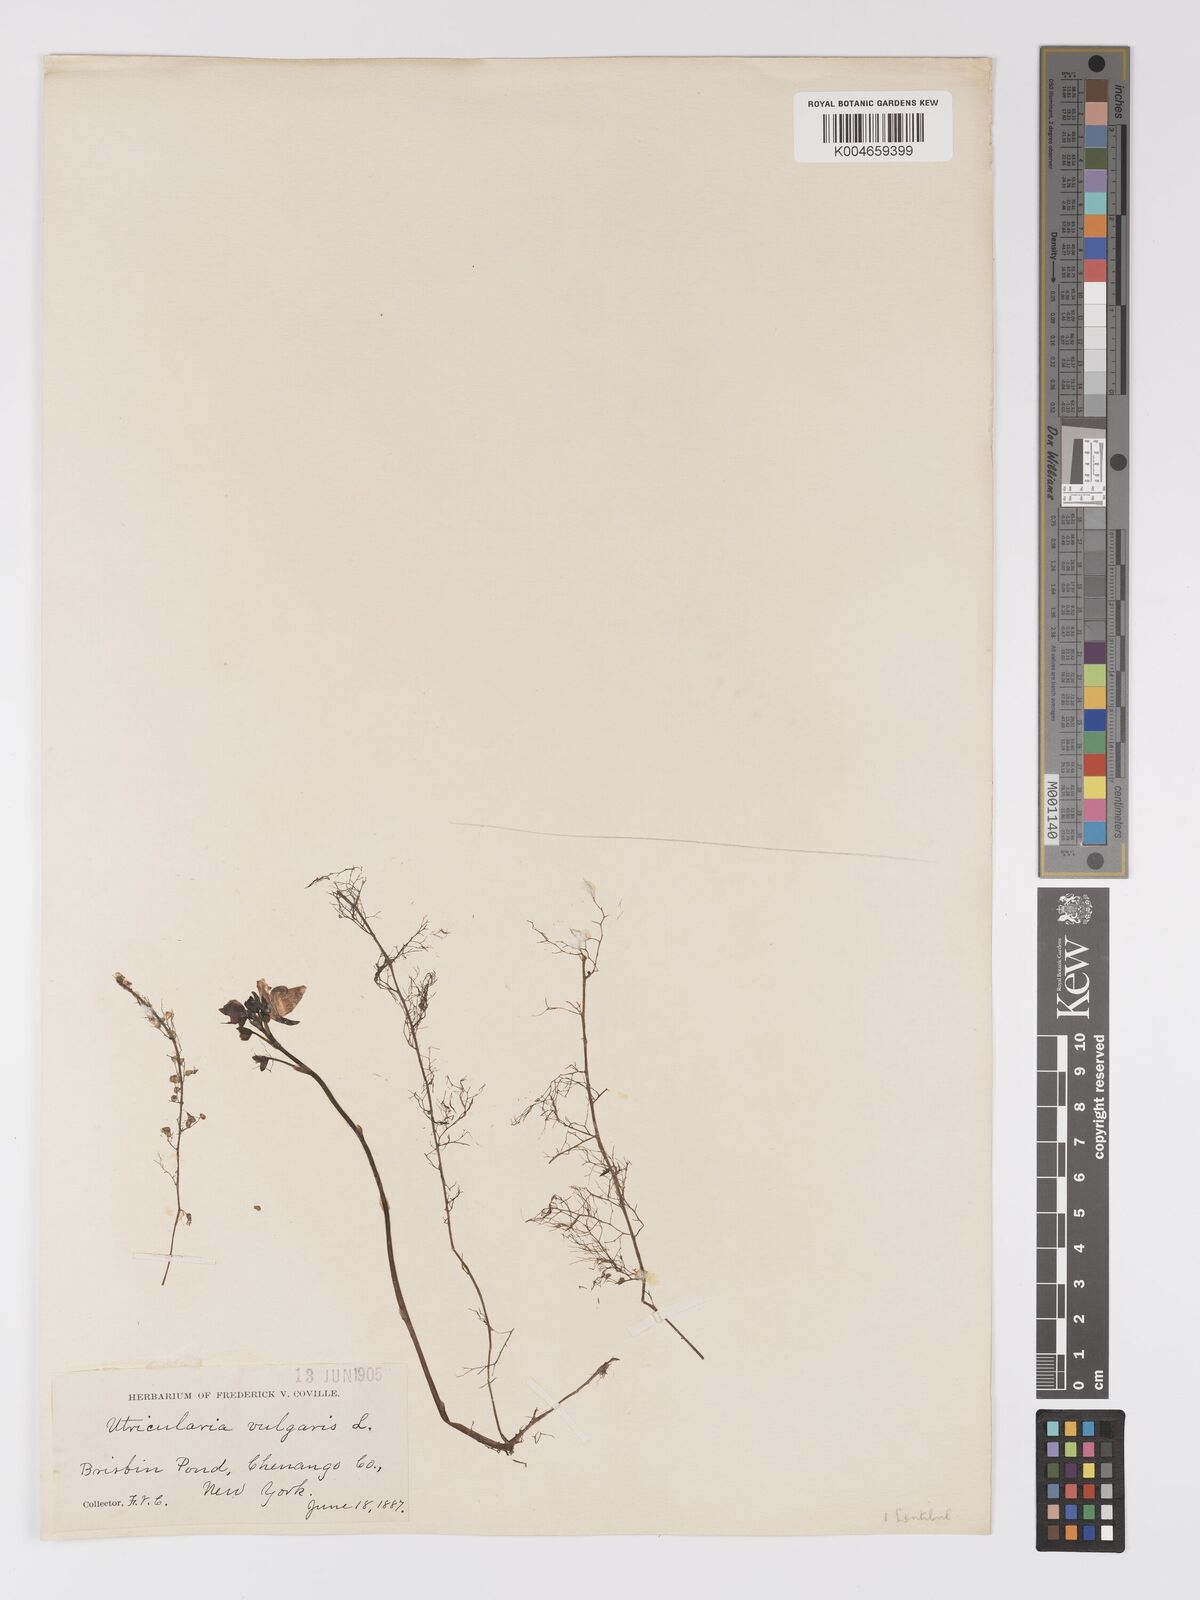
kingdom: Plantae
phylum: Tracheophyta
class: Magnoliopsida
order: Lamiales
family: Lentibulariaceae
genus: Utricularia
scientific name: Utricularia macrorhiza
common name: Common bladderwort
